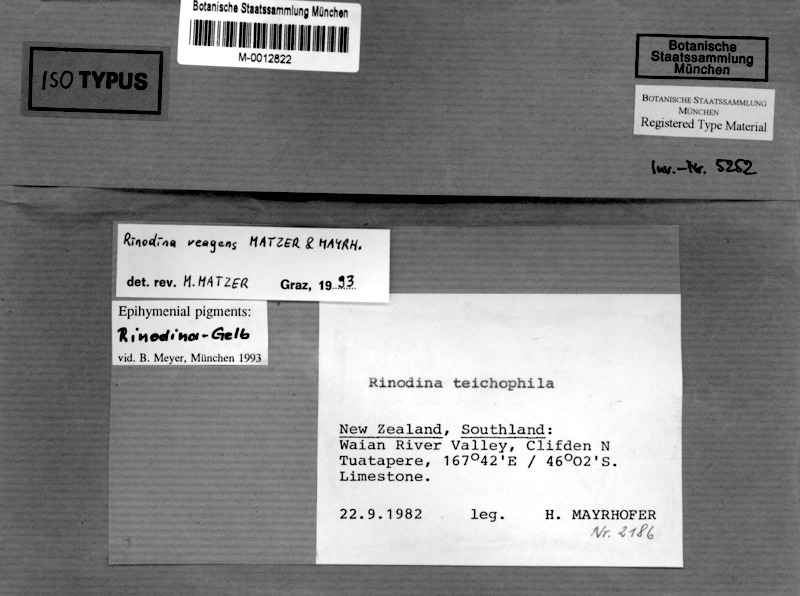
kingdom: Fungi
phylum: Ascomycota
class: Lecanoromycetes
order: Caliciales
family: Physciaceae
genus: Johnsheardia
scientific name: Johnsheardia reagens
